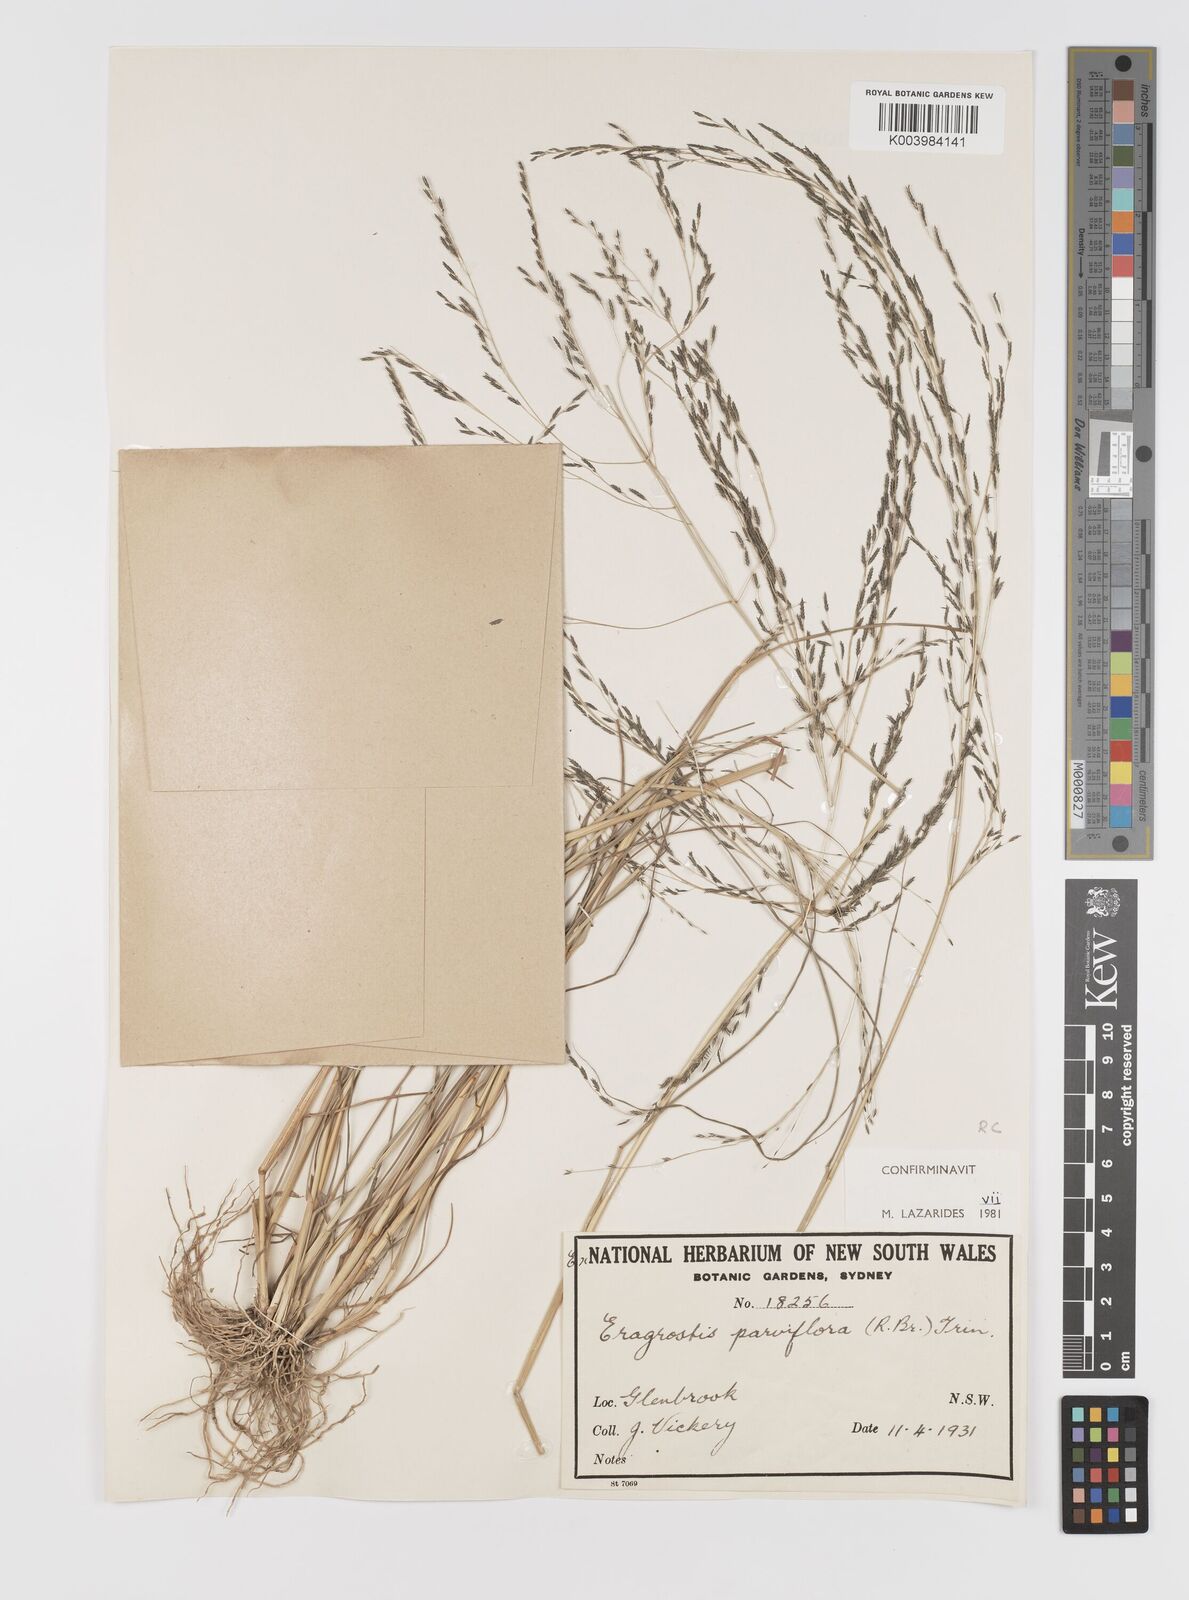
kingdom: Plantae
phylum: Tracheophyta
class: Liliopsida
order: Poales
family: Poaceae
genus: Eragrostis
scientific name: Eragrostis parviflora
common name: Weeping love-grass
